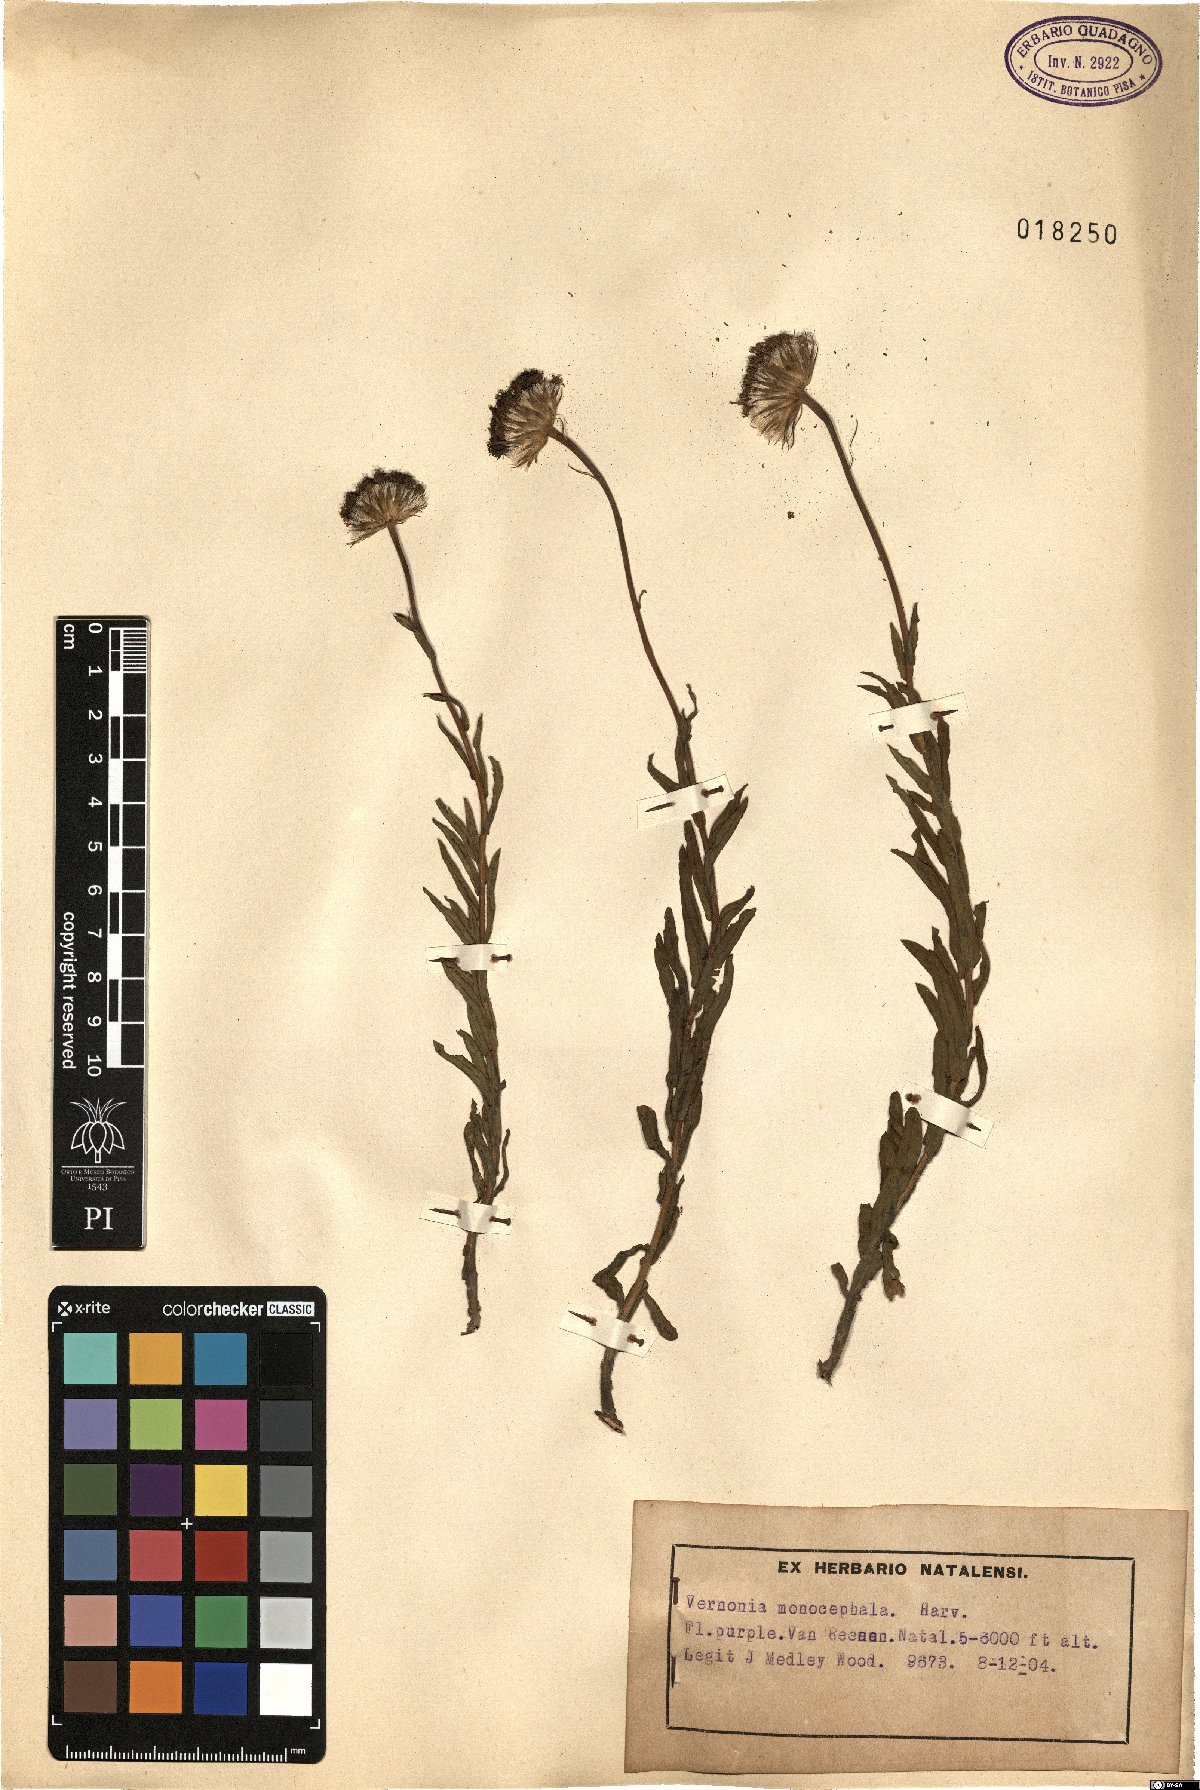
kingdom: Plantae
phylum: Tracheophyta
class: Magnoliopsida
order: Asterales
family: Asteraceae
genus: Pseudopegolettia
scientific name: Pseudopegolettia tenella
